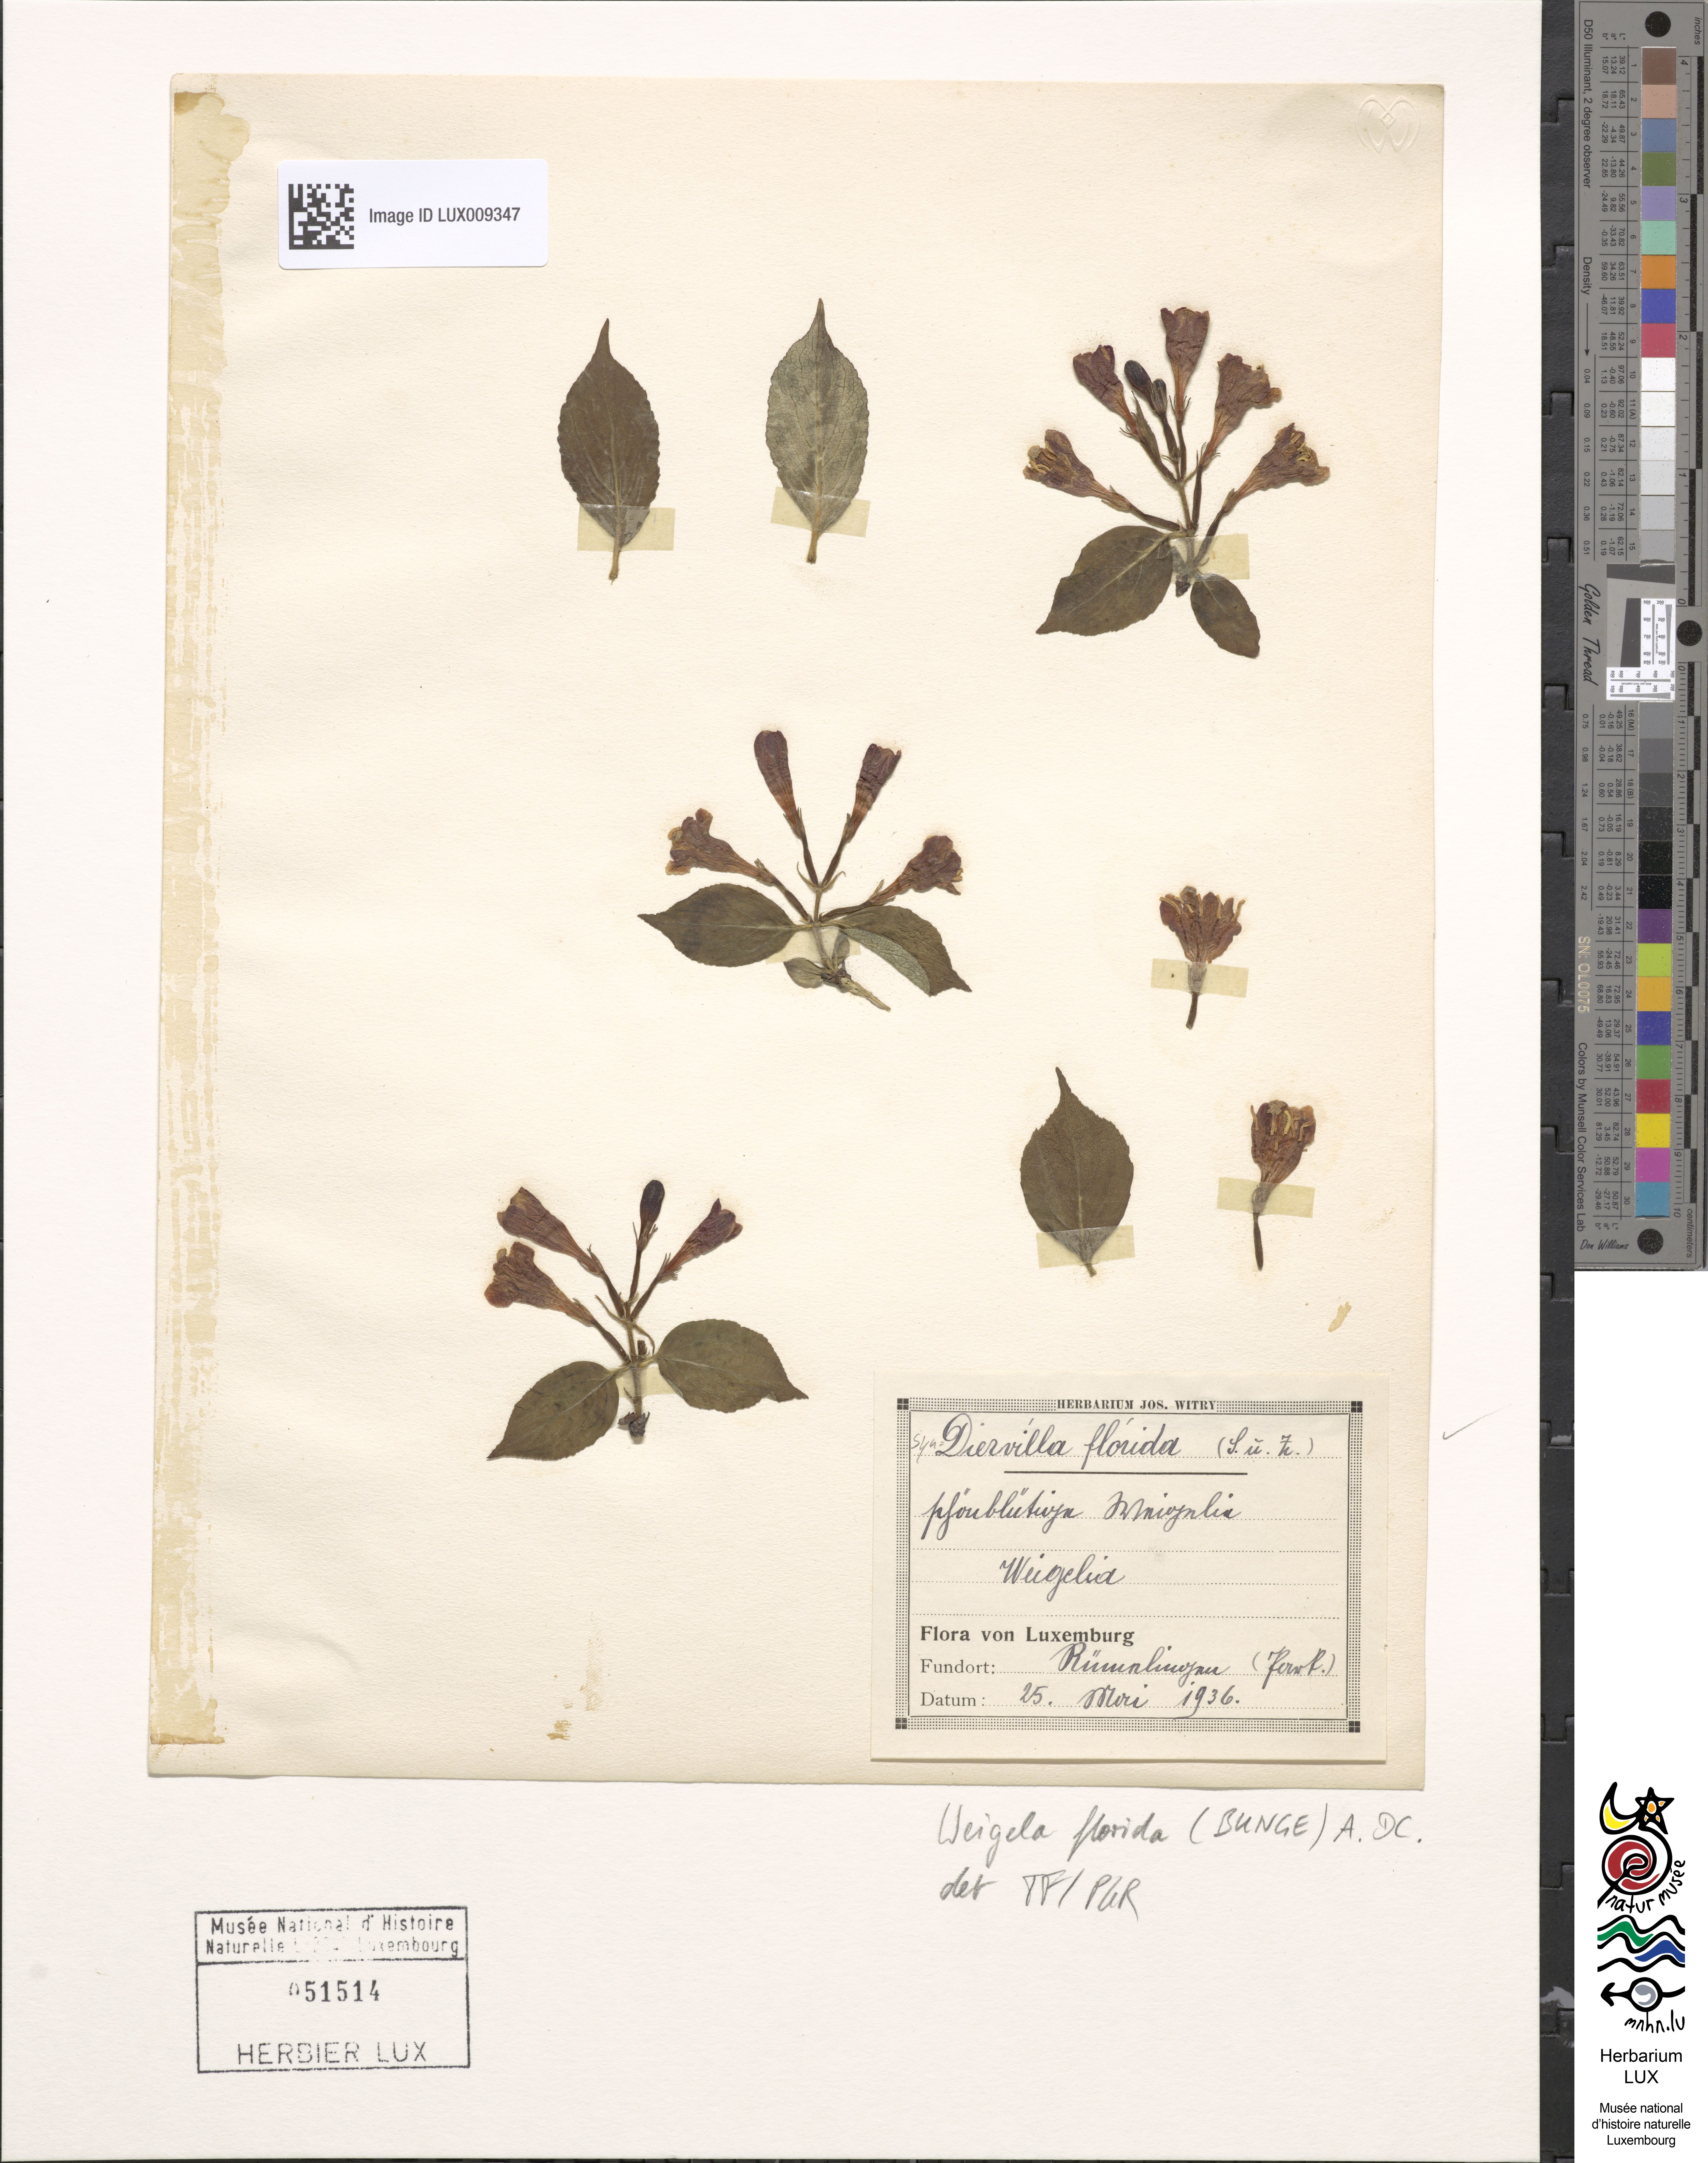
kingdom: Plantae
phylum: Tracheophyta
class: Magnoliopsida
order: Dipsacales
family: Caprifoliaceae
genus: Weigela
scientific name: Weigela florida
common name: Weigelia
